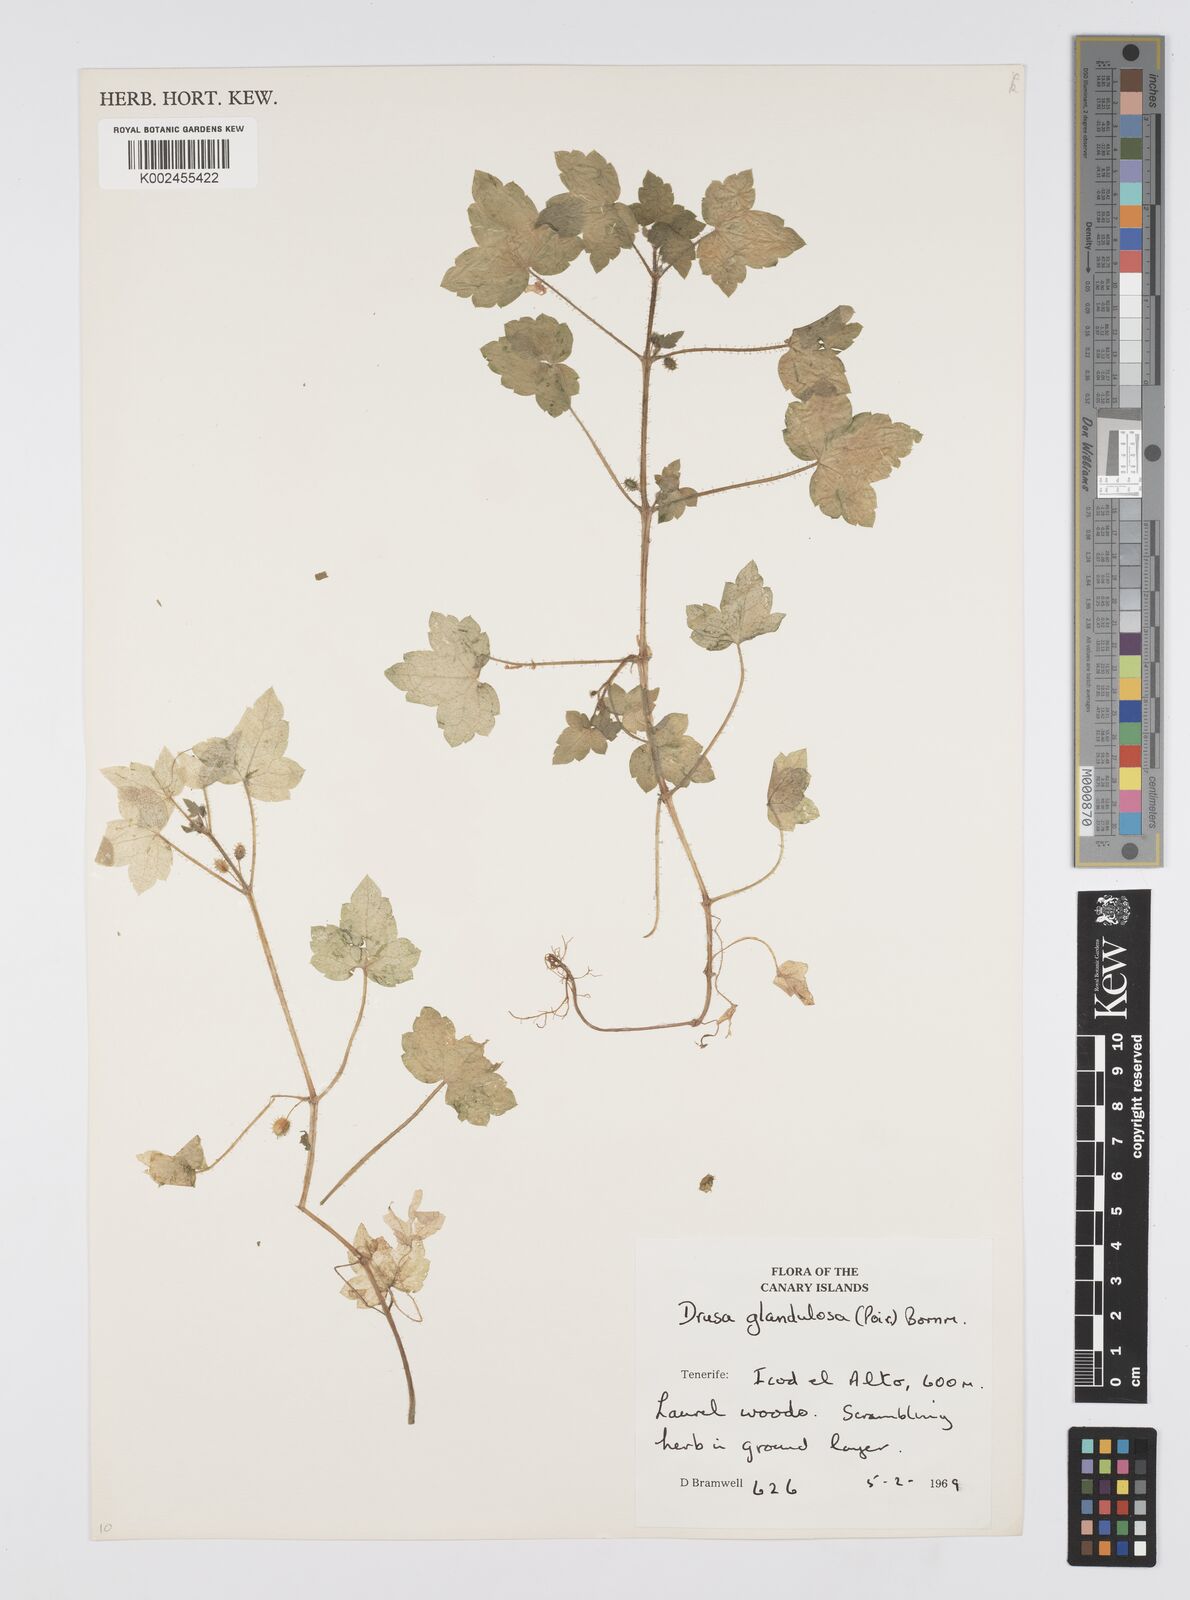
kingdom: Plantae
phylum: Tracheophyta
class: Magnoliopsida
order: Apiales
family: Apiaceae
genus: Drusa
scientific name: Drusa glandulosa
